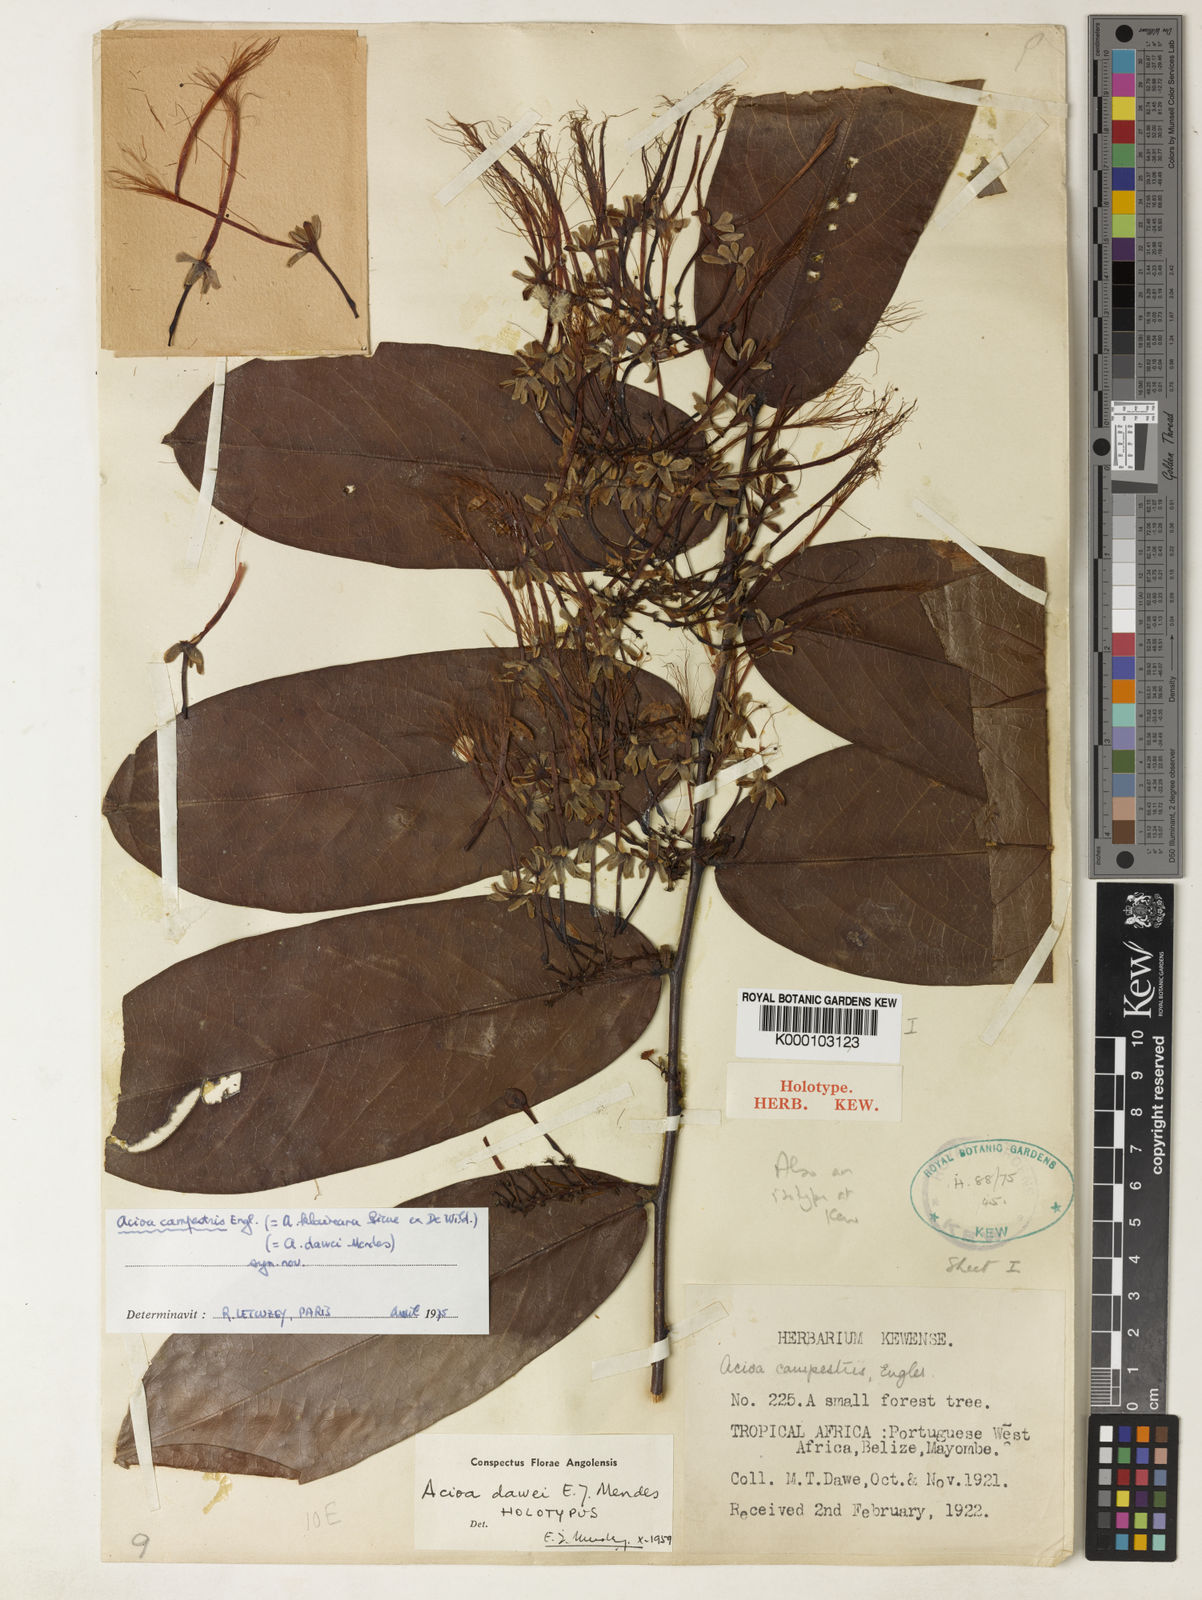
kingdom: Plantae
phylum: Tracheophyta
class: Magnoliopsida
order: Malpighiales
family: Chrysobalanaceae
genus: Dactyladenia
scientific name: Dactyladenia campestris
